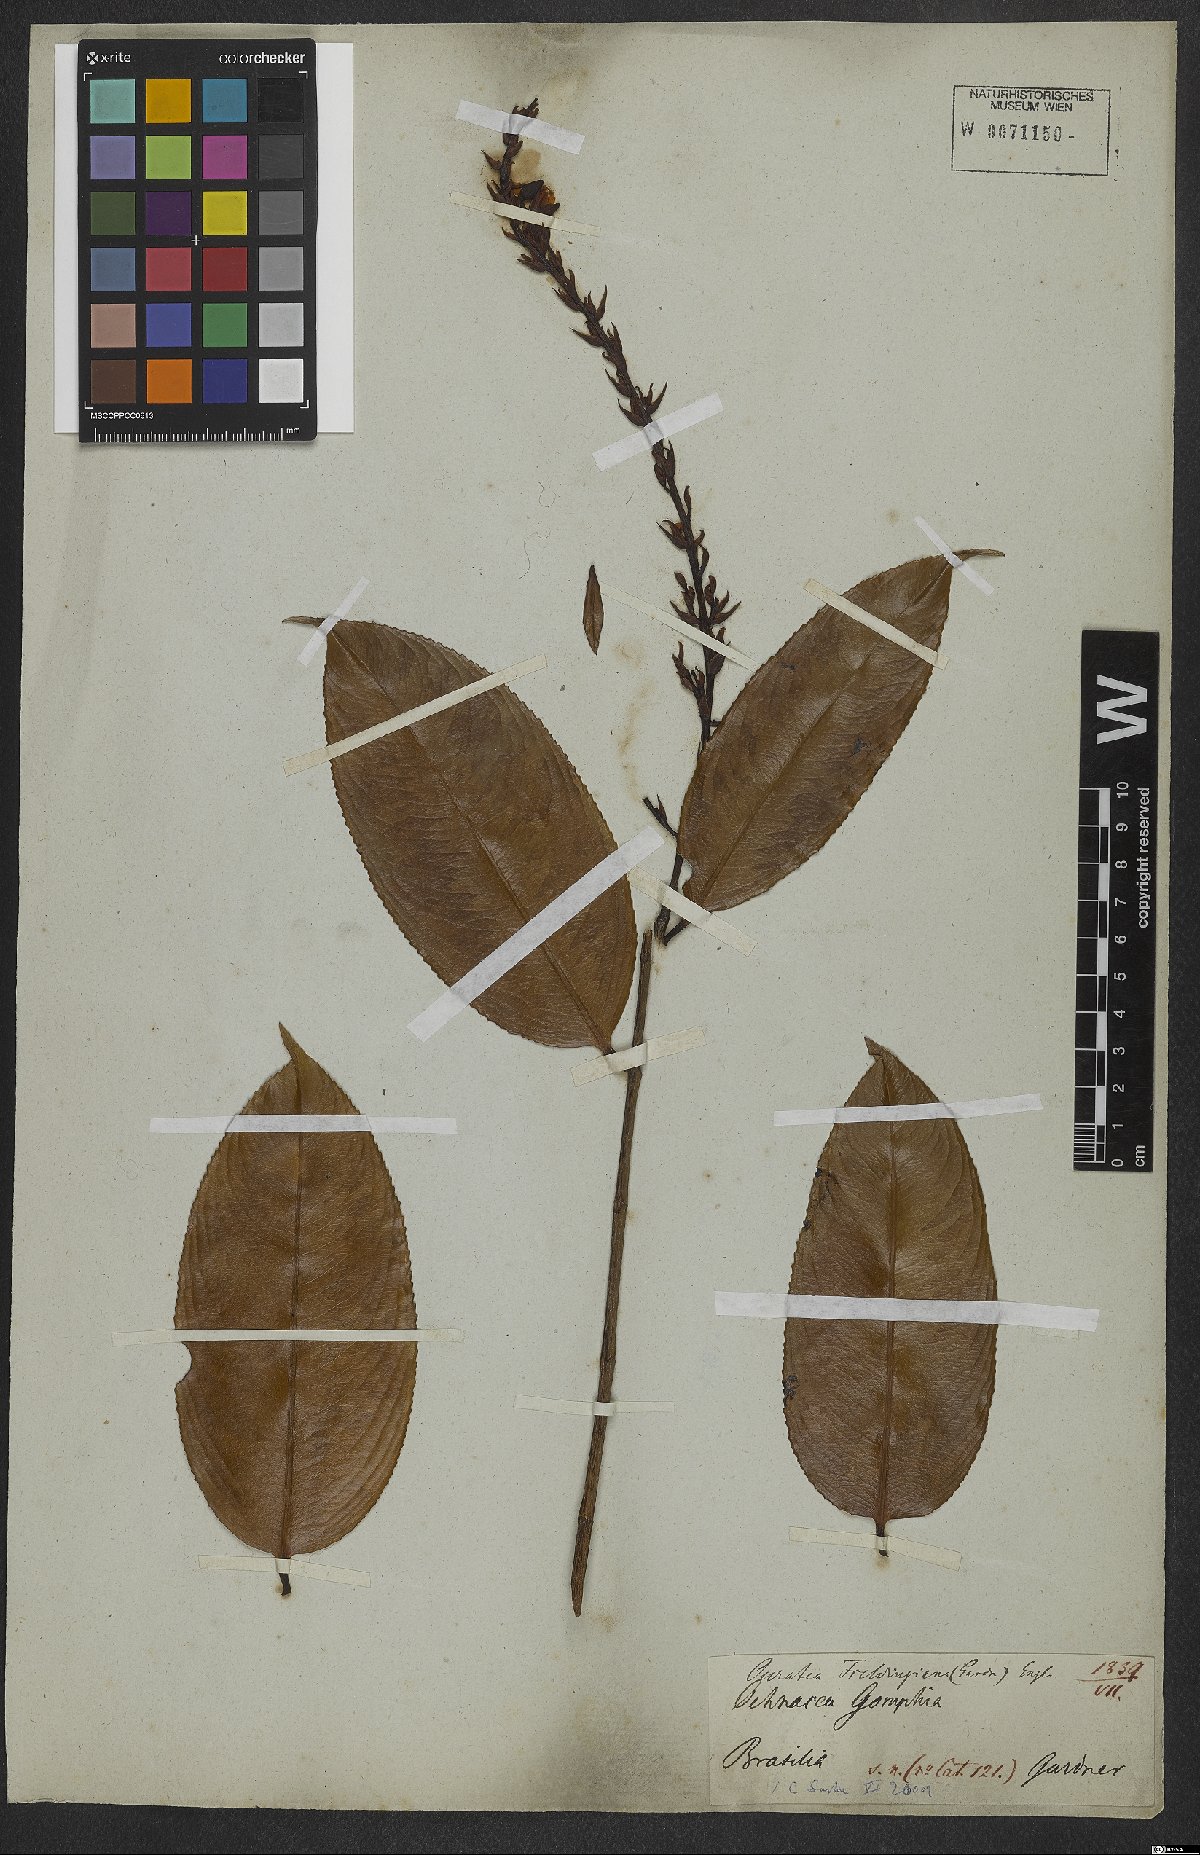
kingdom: Plantae
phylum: Tracheophyta
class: Magnoliopsida
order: Malpighiales
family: Ochnaceae
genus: Ouratea
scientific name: Ouratea fieldingiana
